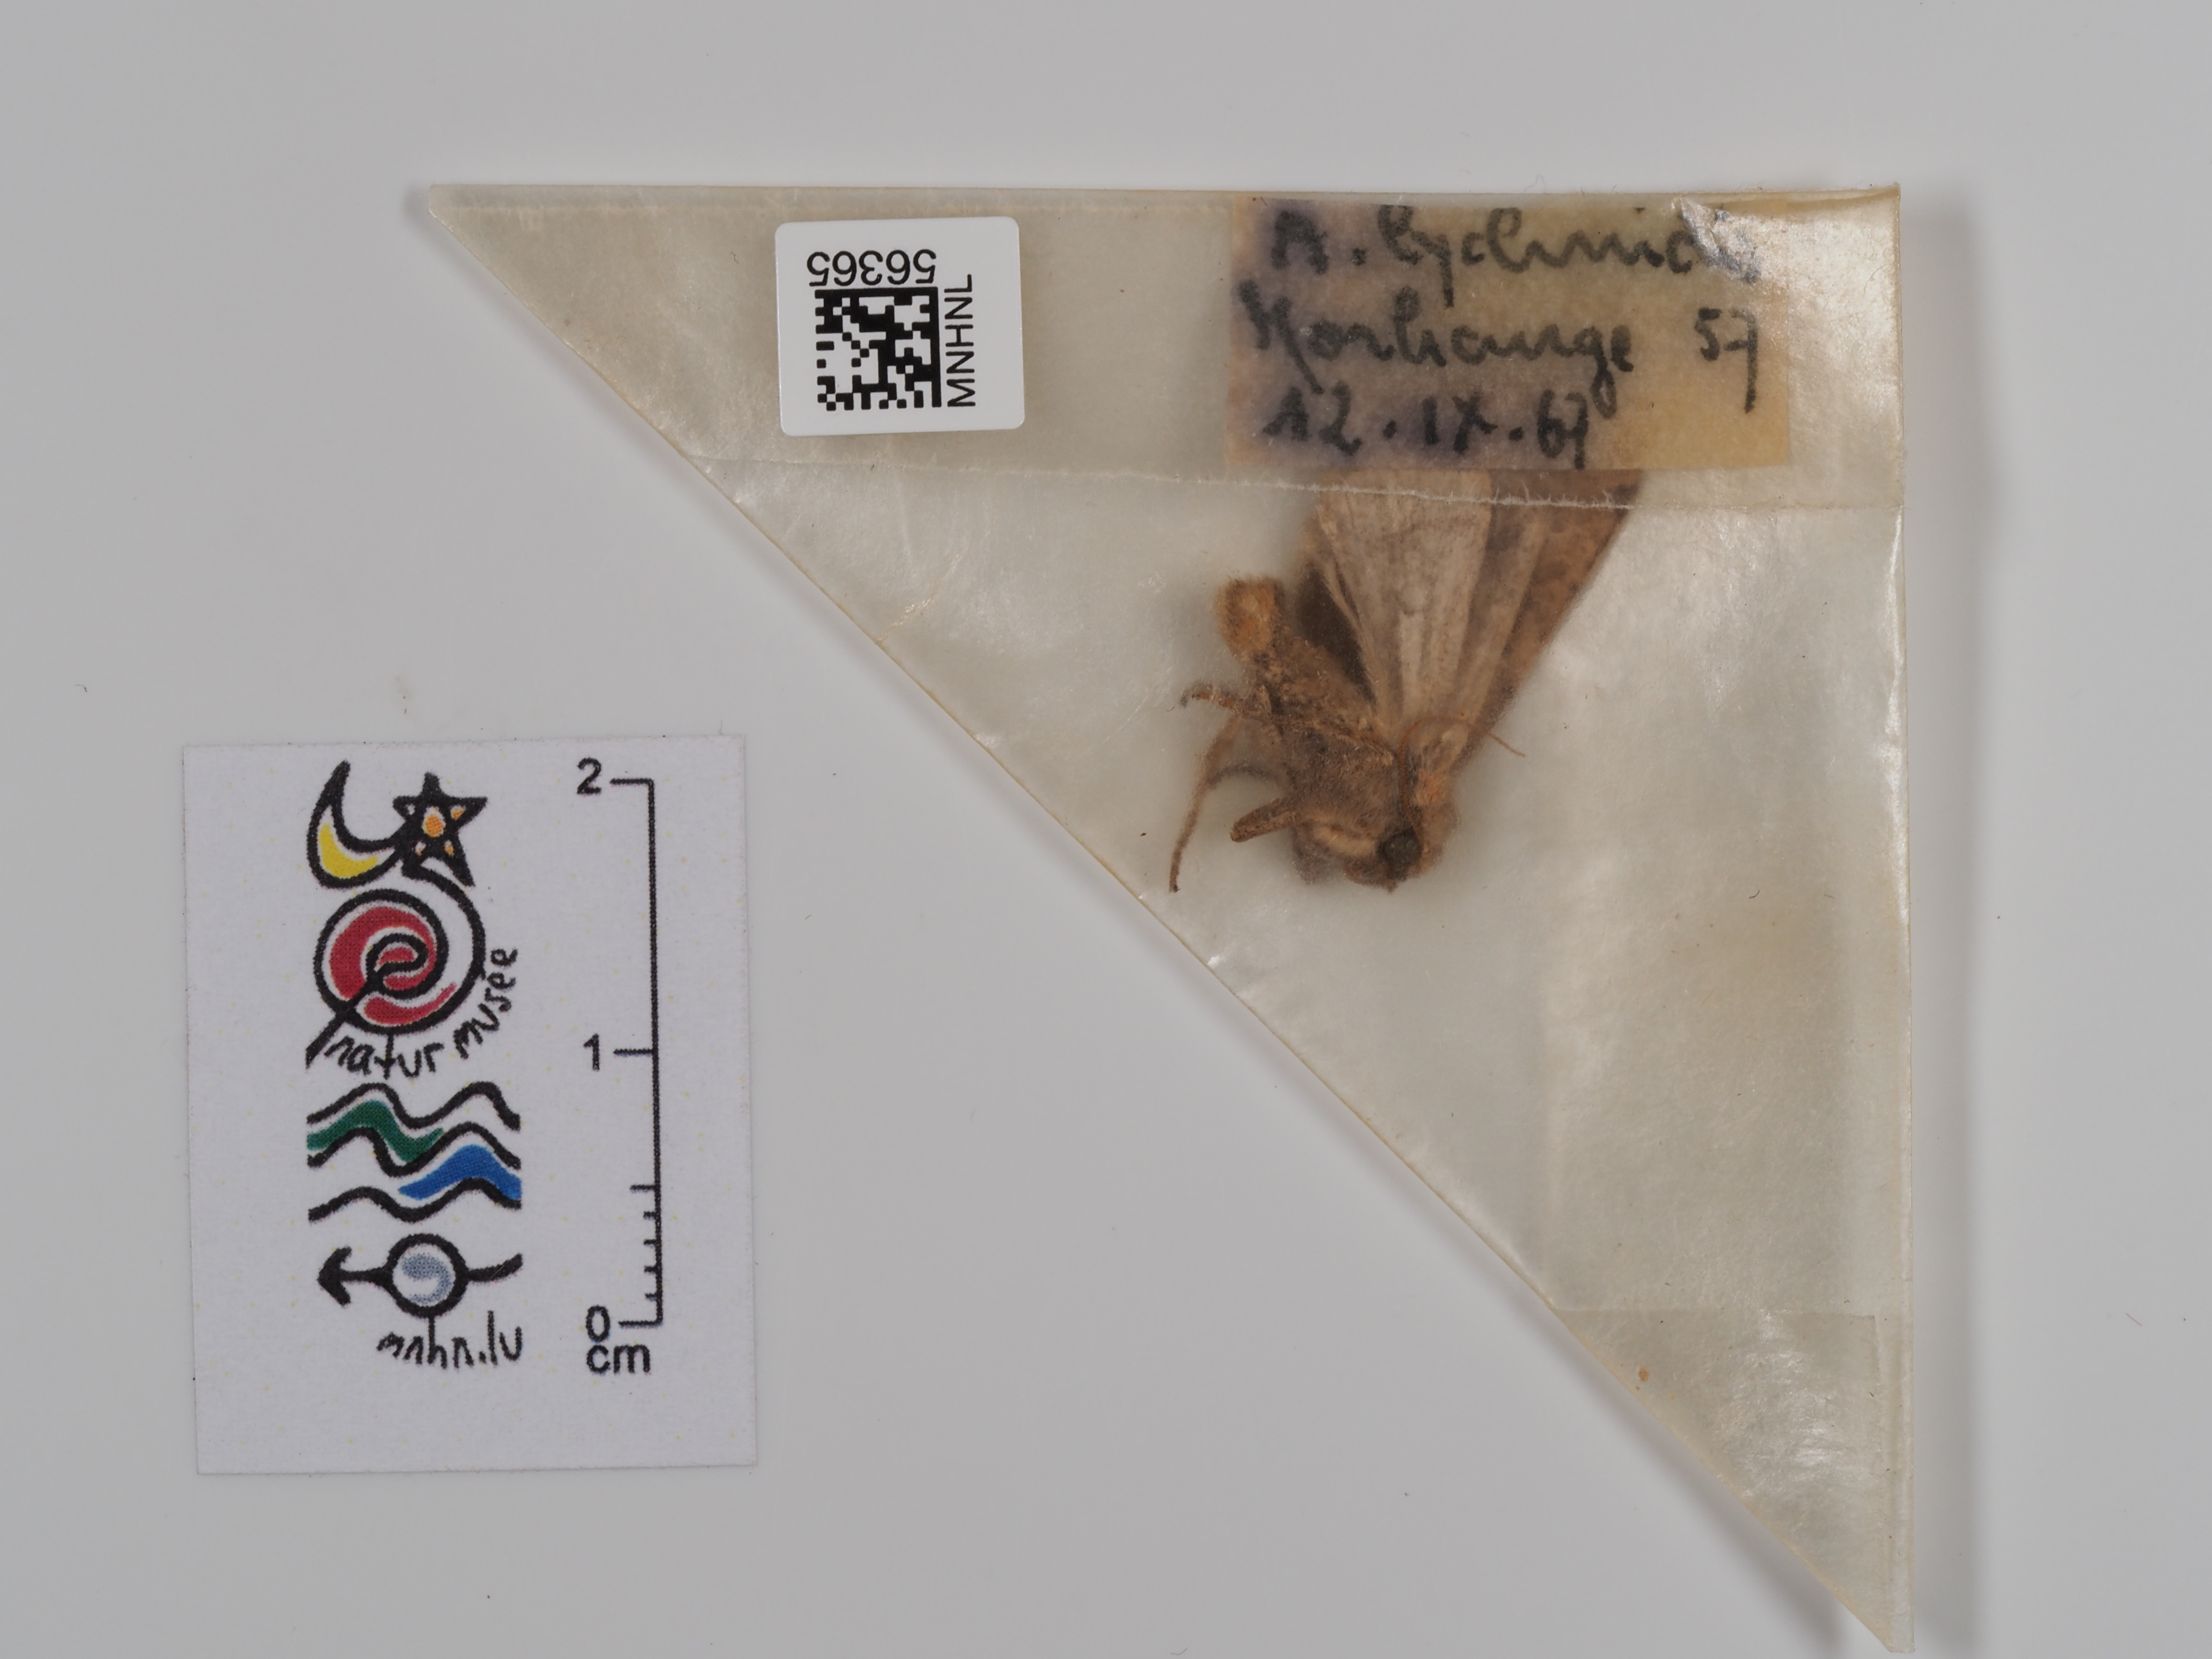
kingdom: Animalia
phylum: Arthropoda
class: Insecta
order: Lepidoptera
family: Noctuidae
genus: Agrochola
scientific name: Agrochola lychnidis
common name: Beaded chestnut
